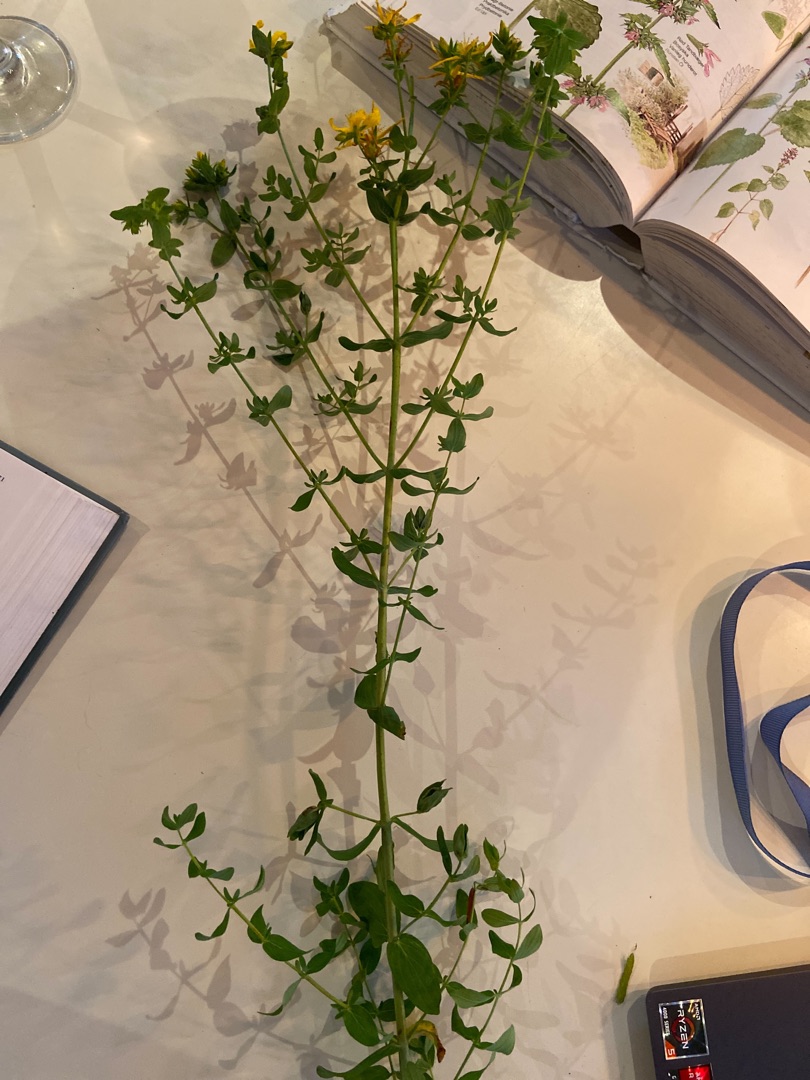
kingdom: Plantae
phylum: Tracheophyta
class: Magnoliopsida
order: Malpighiales
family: Hypericaceae
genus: Hypericum
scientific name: Hypericum perforatum
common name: Prikbladet perikon
